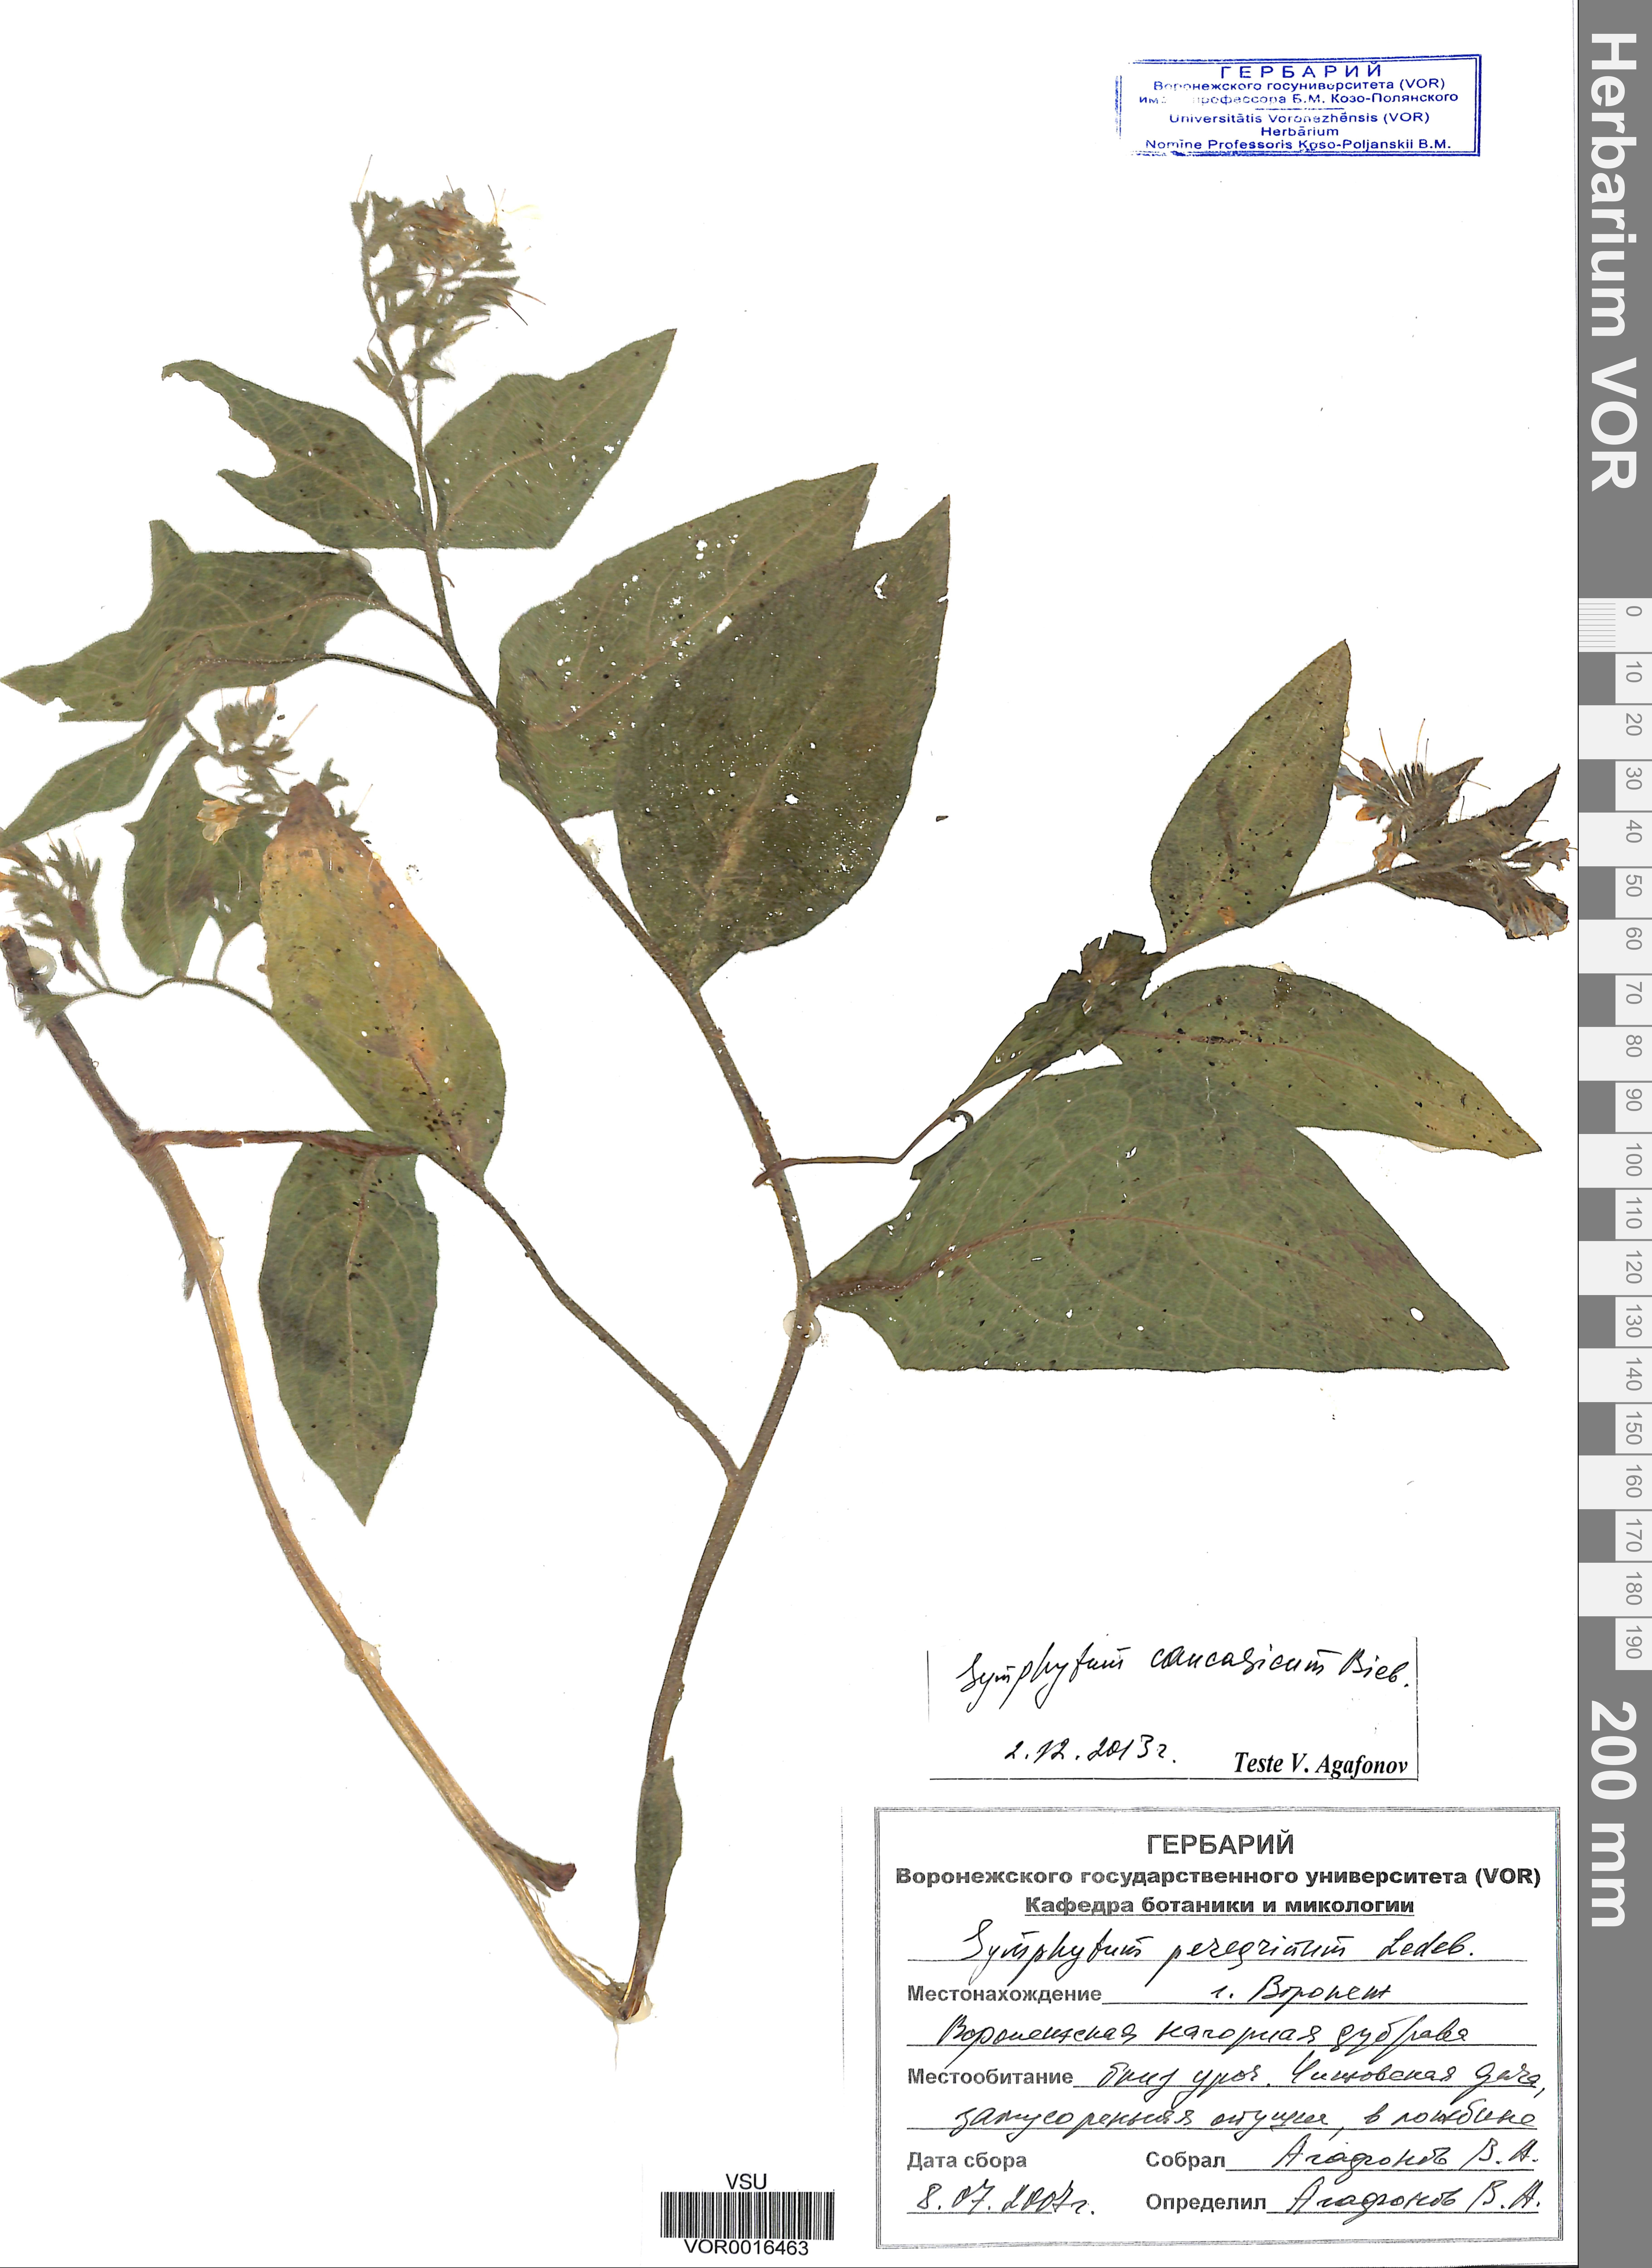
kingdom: Plantae
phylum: Tracheophyta
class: Magnoliopsida
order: Boraginales
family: Boraginaceae
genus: Symphytum
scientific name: Symphytum caucasicum
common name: Caucasian comfrey
